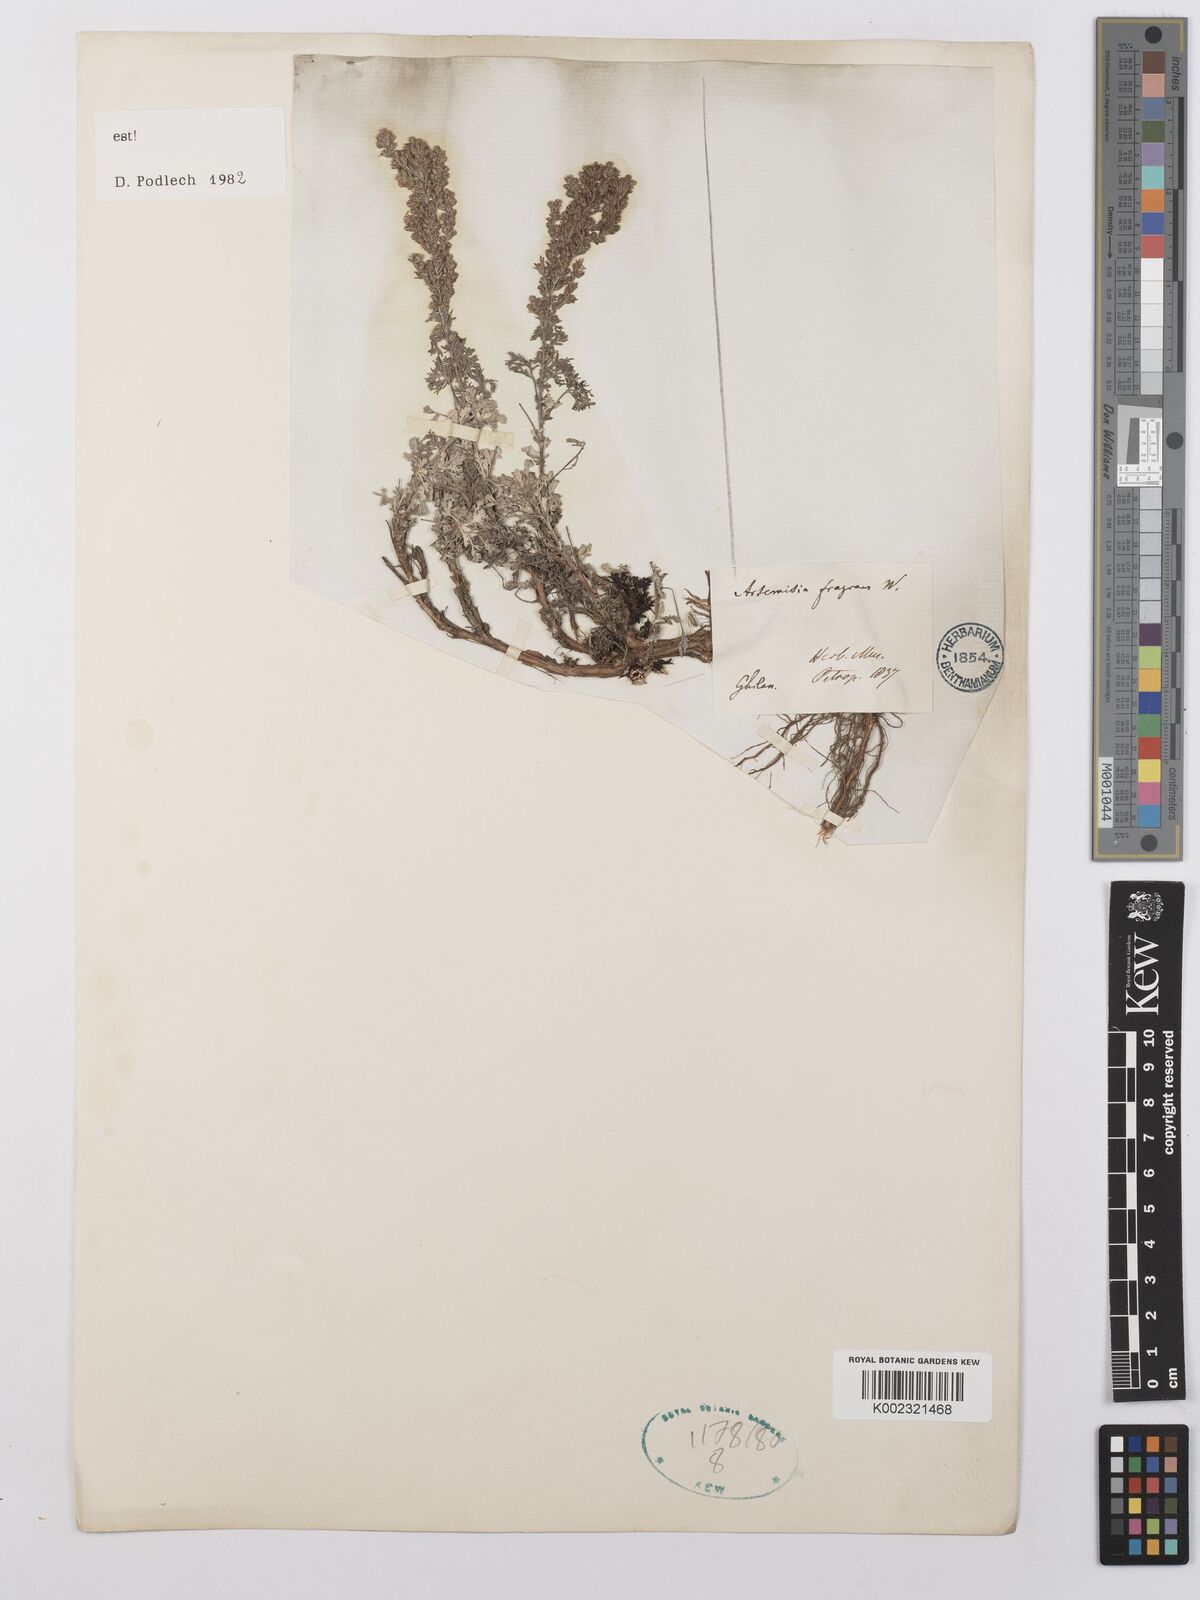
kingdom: Plantae
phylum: Tracheophyta
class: Magnoliopsida
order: Asterales
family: Asteraceae
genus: Artemisia
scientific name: Artemisia fragrans
